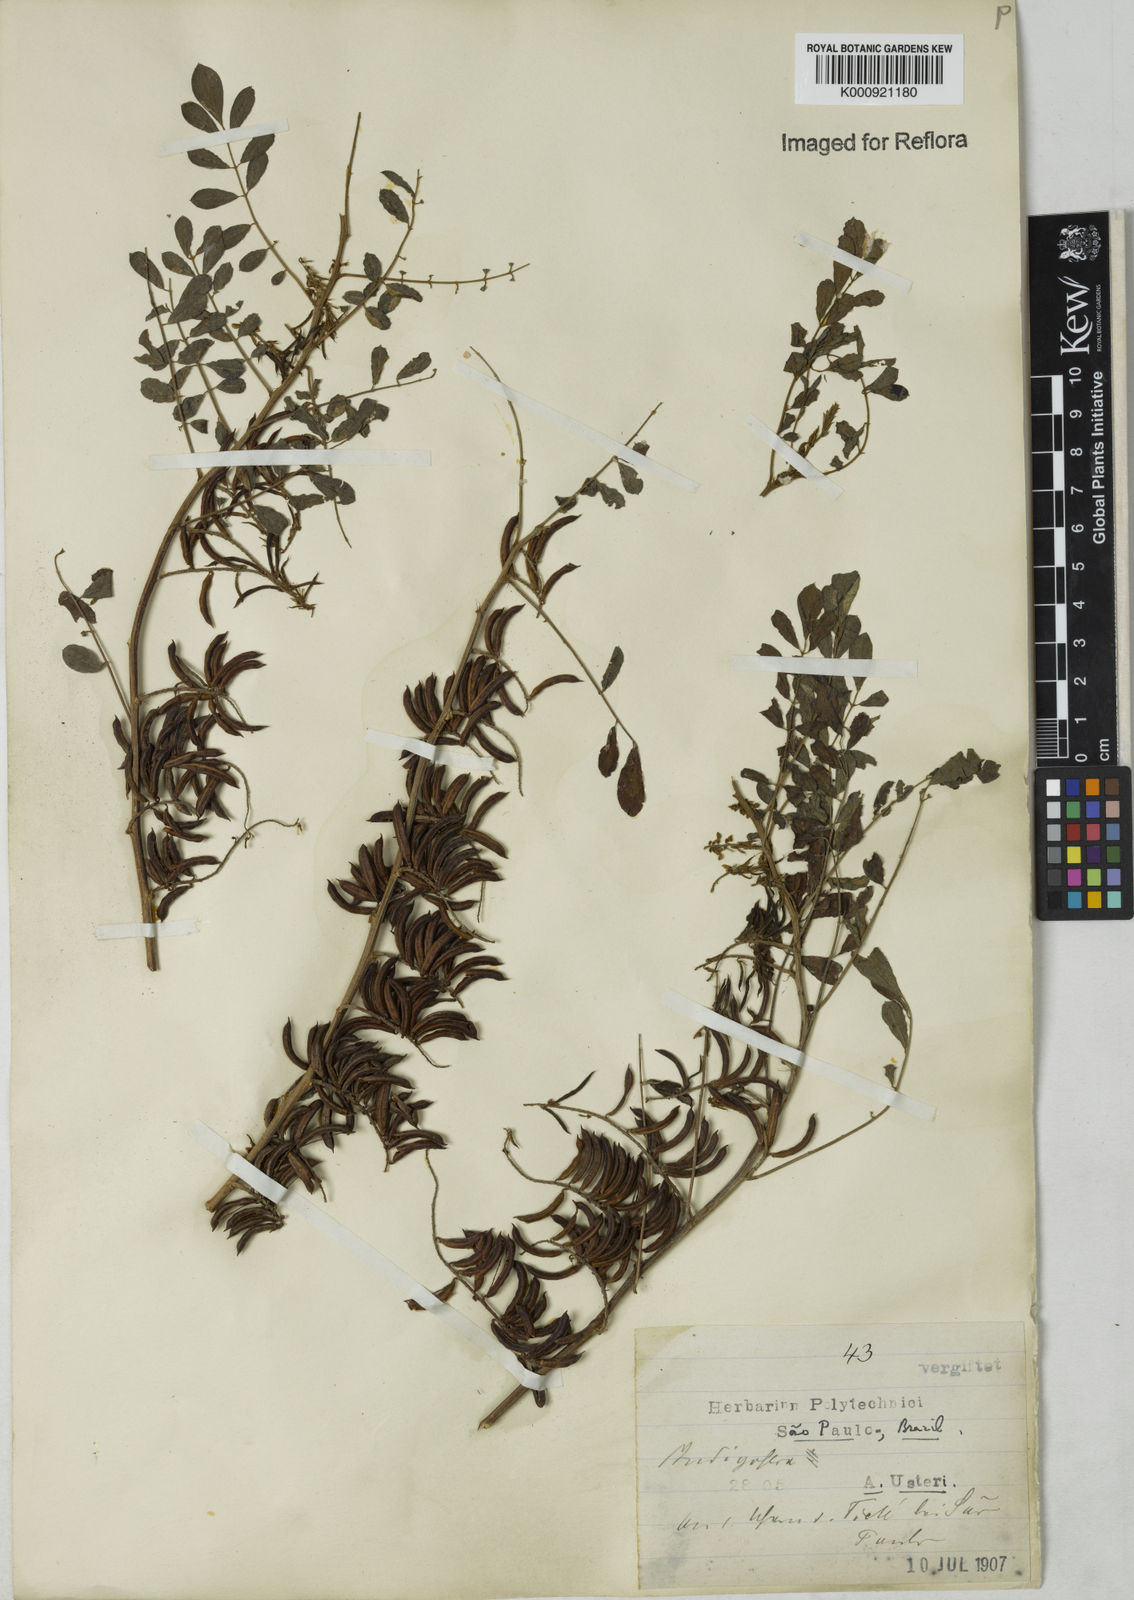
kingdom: Plantae
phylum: Tracheophyta
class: Magnoliopsida
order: Fabales
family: Fabaceae
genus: Indigofera
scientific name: Indigofera suffruticosa
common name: Anil de pasto
